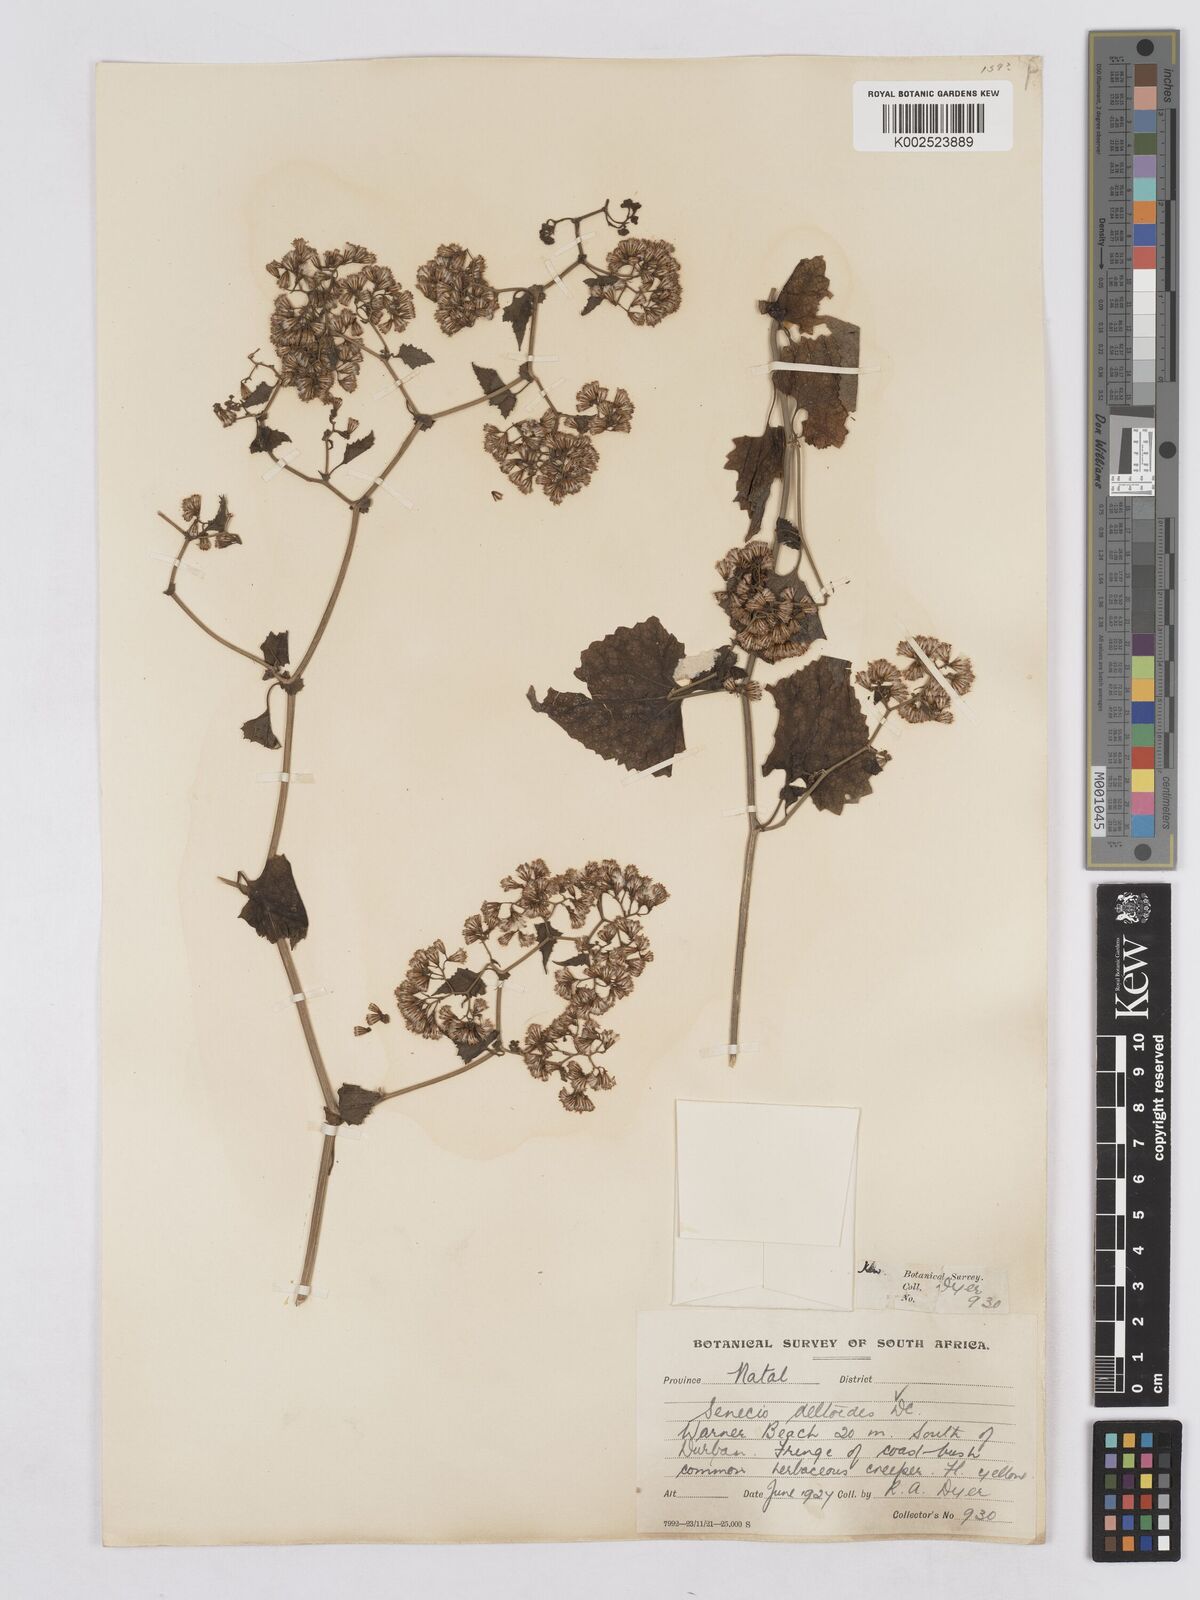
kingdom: Plantae
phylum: Tracheophyta
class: Magnoliopsida
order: Asterales
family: Asteraceae
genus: Senecio
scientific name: Senecio deltoideus
